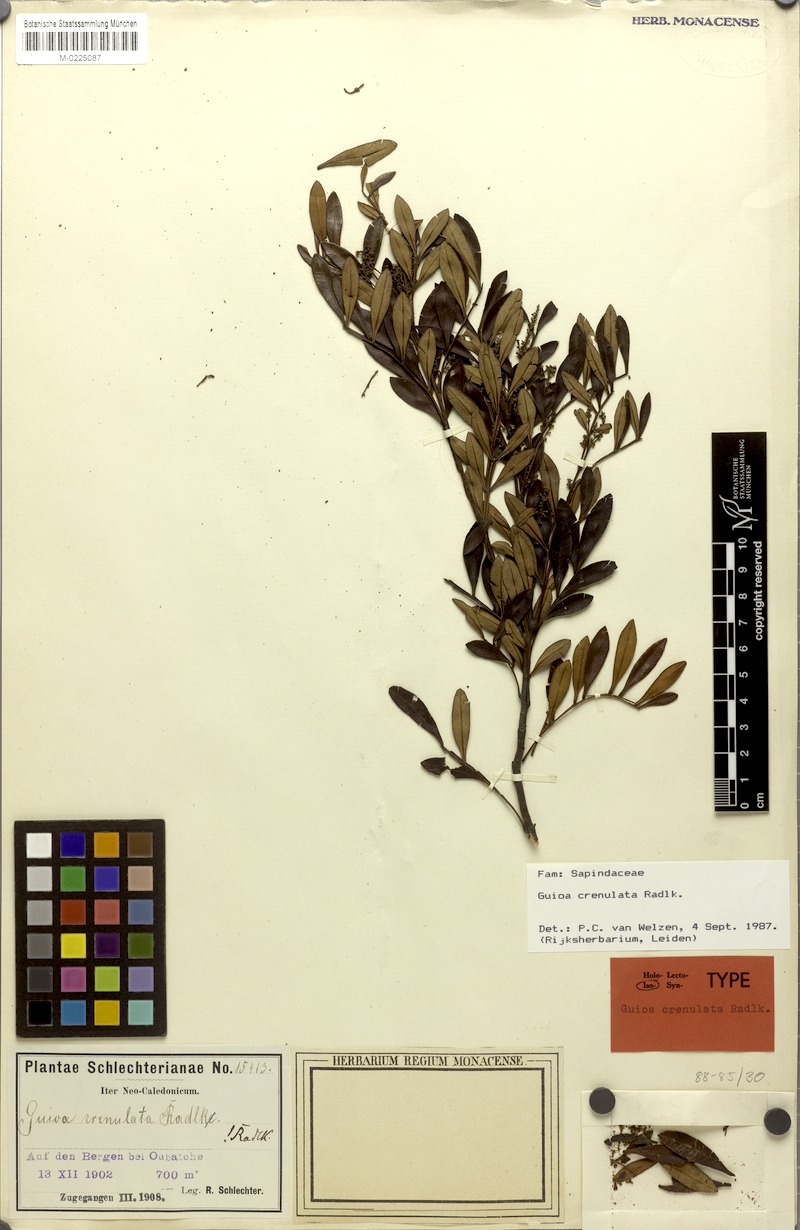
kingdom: Plantae
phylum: Tracheophyta
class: Magnoliopsida
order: Sapindales
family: Sapindaceae
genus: Guioa
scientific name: Guioa crenulata
